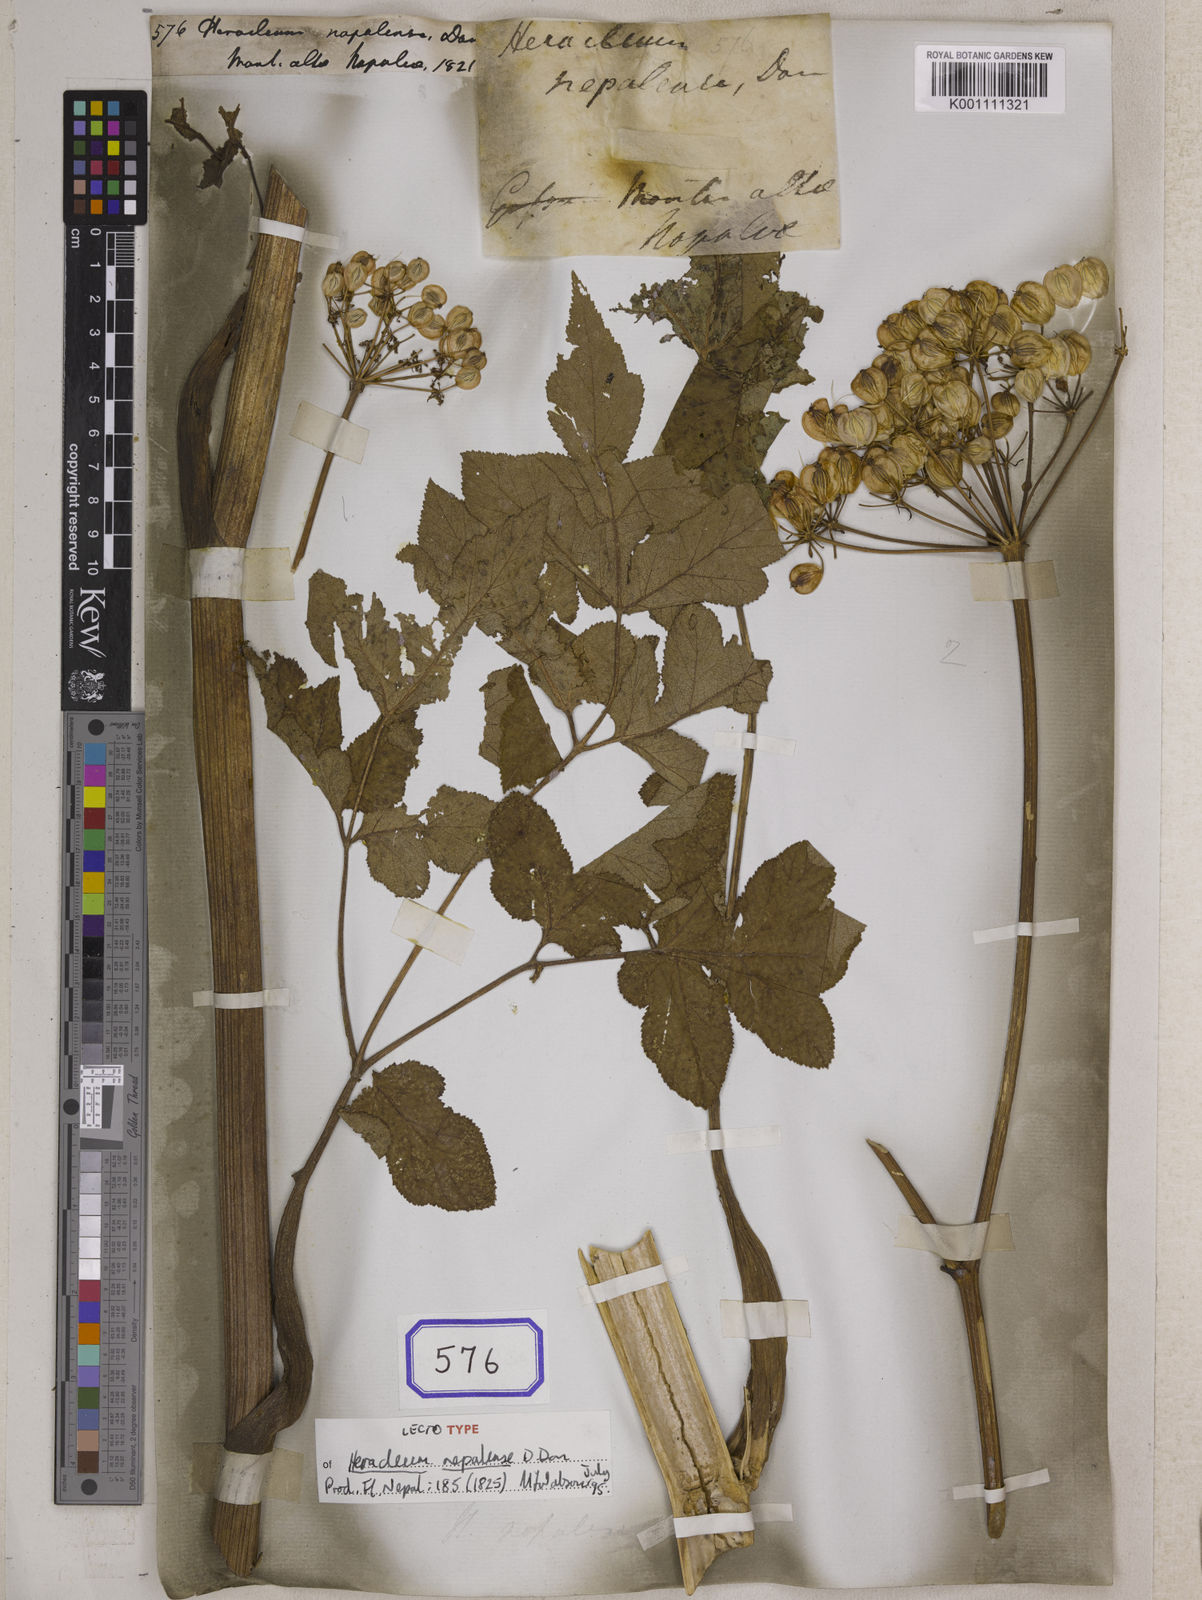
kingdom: Plantae
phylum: Tracheophyta
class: Magnoliopsida
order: Apiales
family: Apiaceae
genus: Tetrataenium
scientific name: Tetrataenium nepalense
